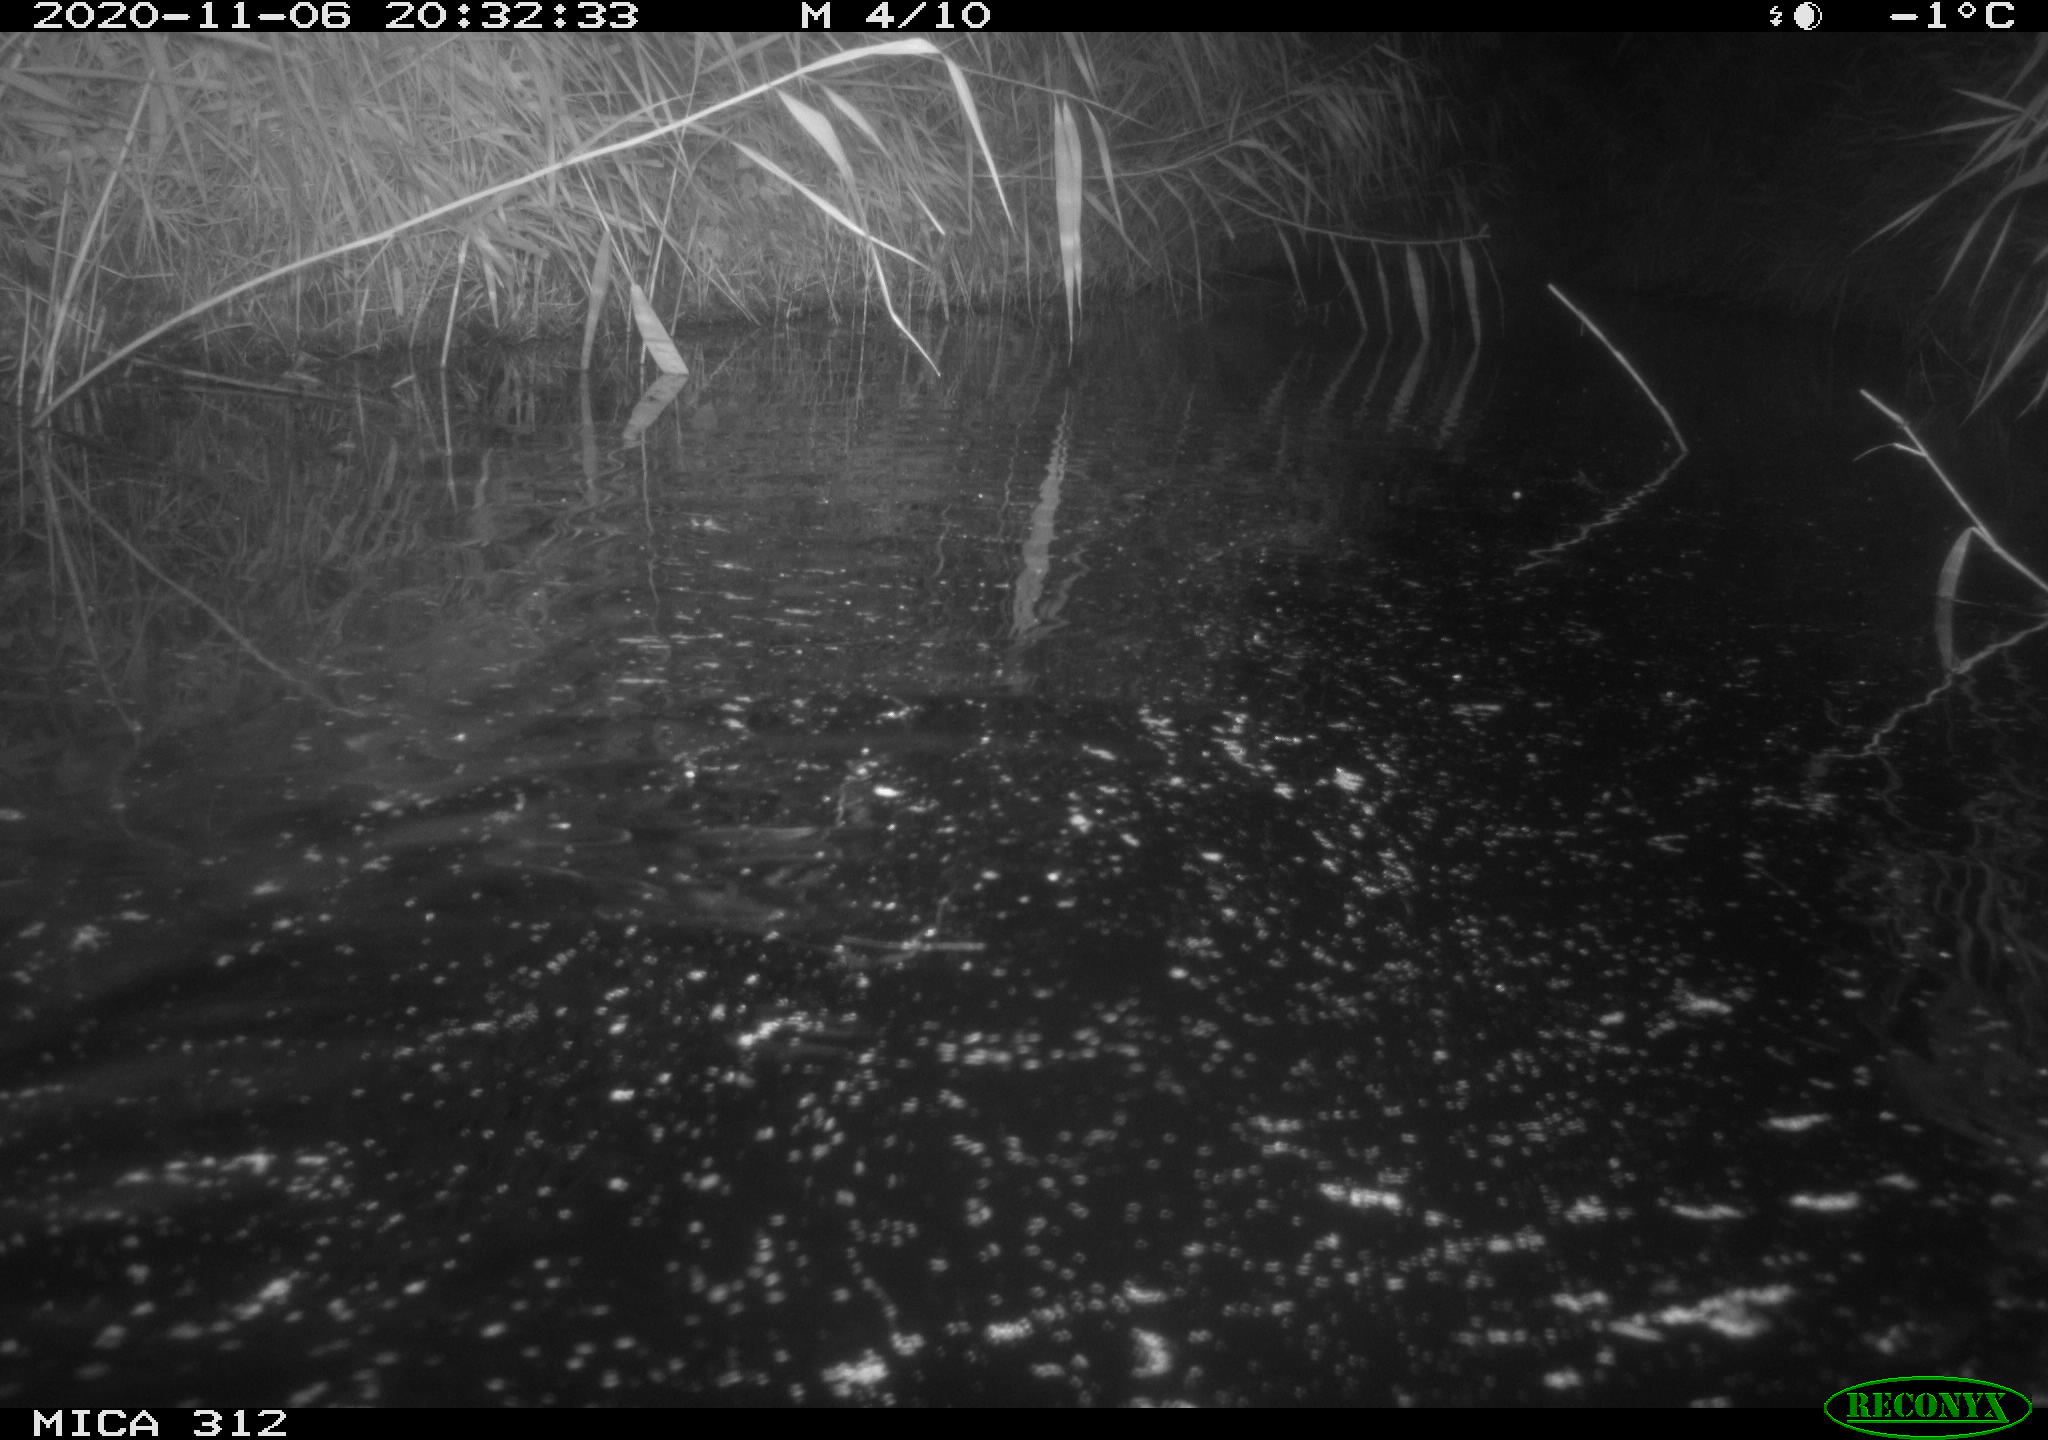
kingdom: Animalia
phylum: Chordata
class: Mammalia
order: Rodentia
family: Muridae
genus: Rattus
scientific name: Rattus norvegicus
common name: Brown rat
